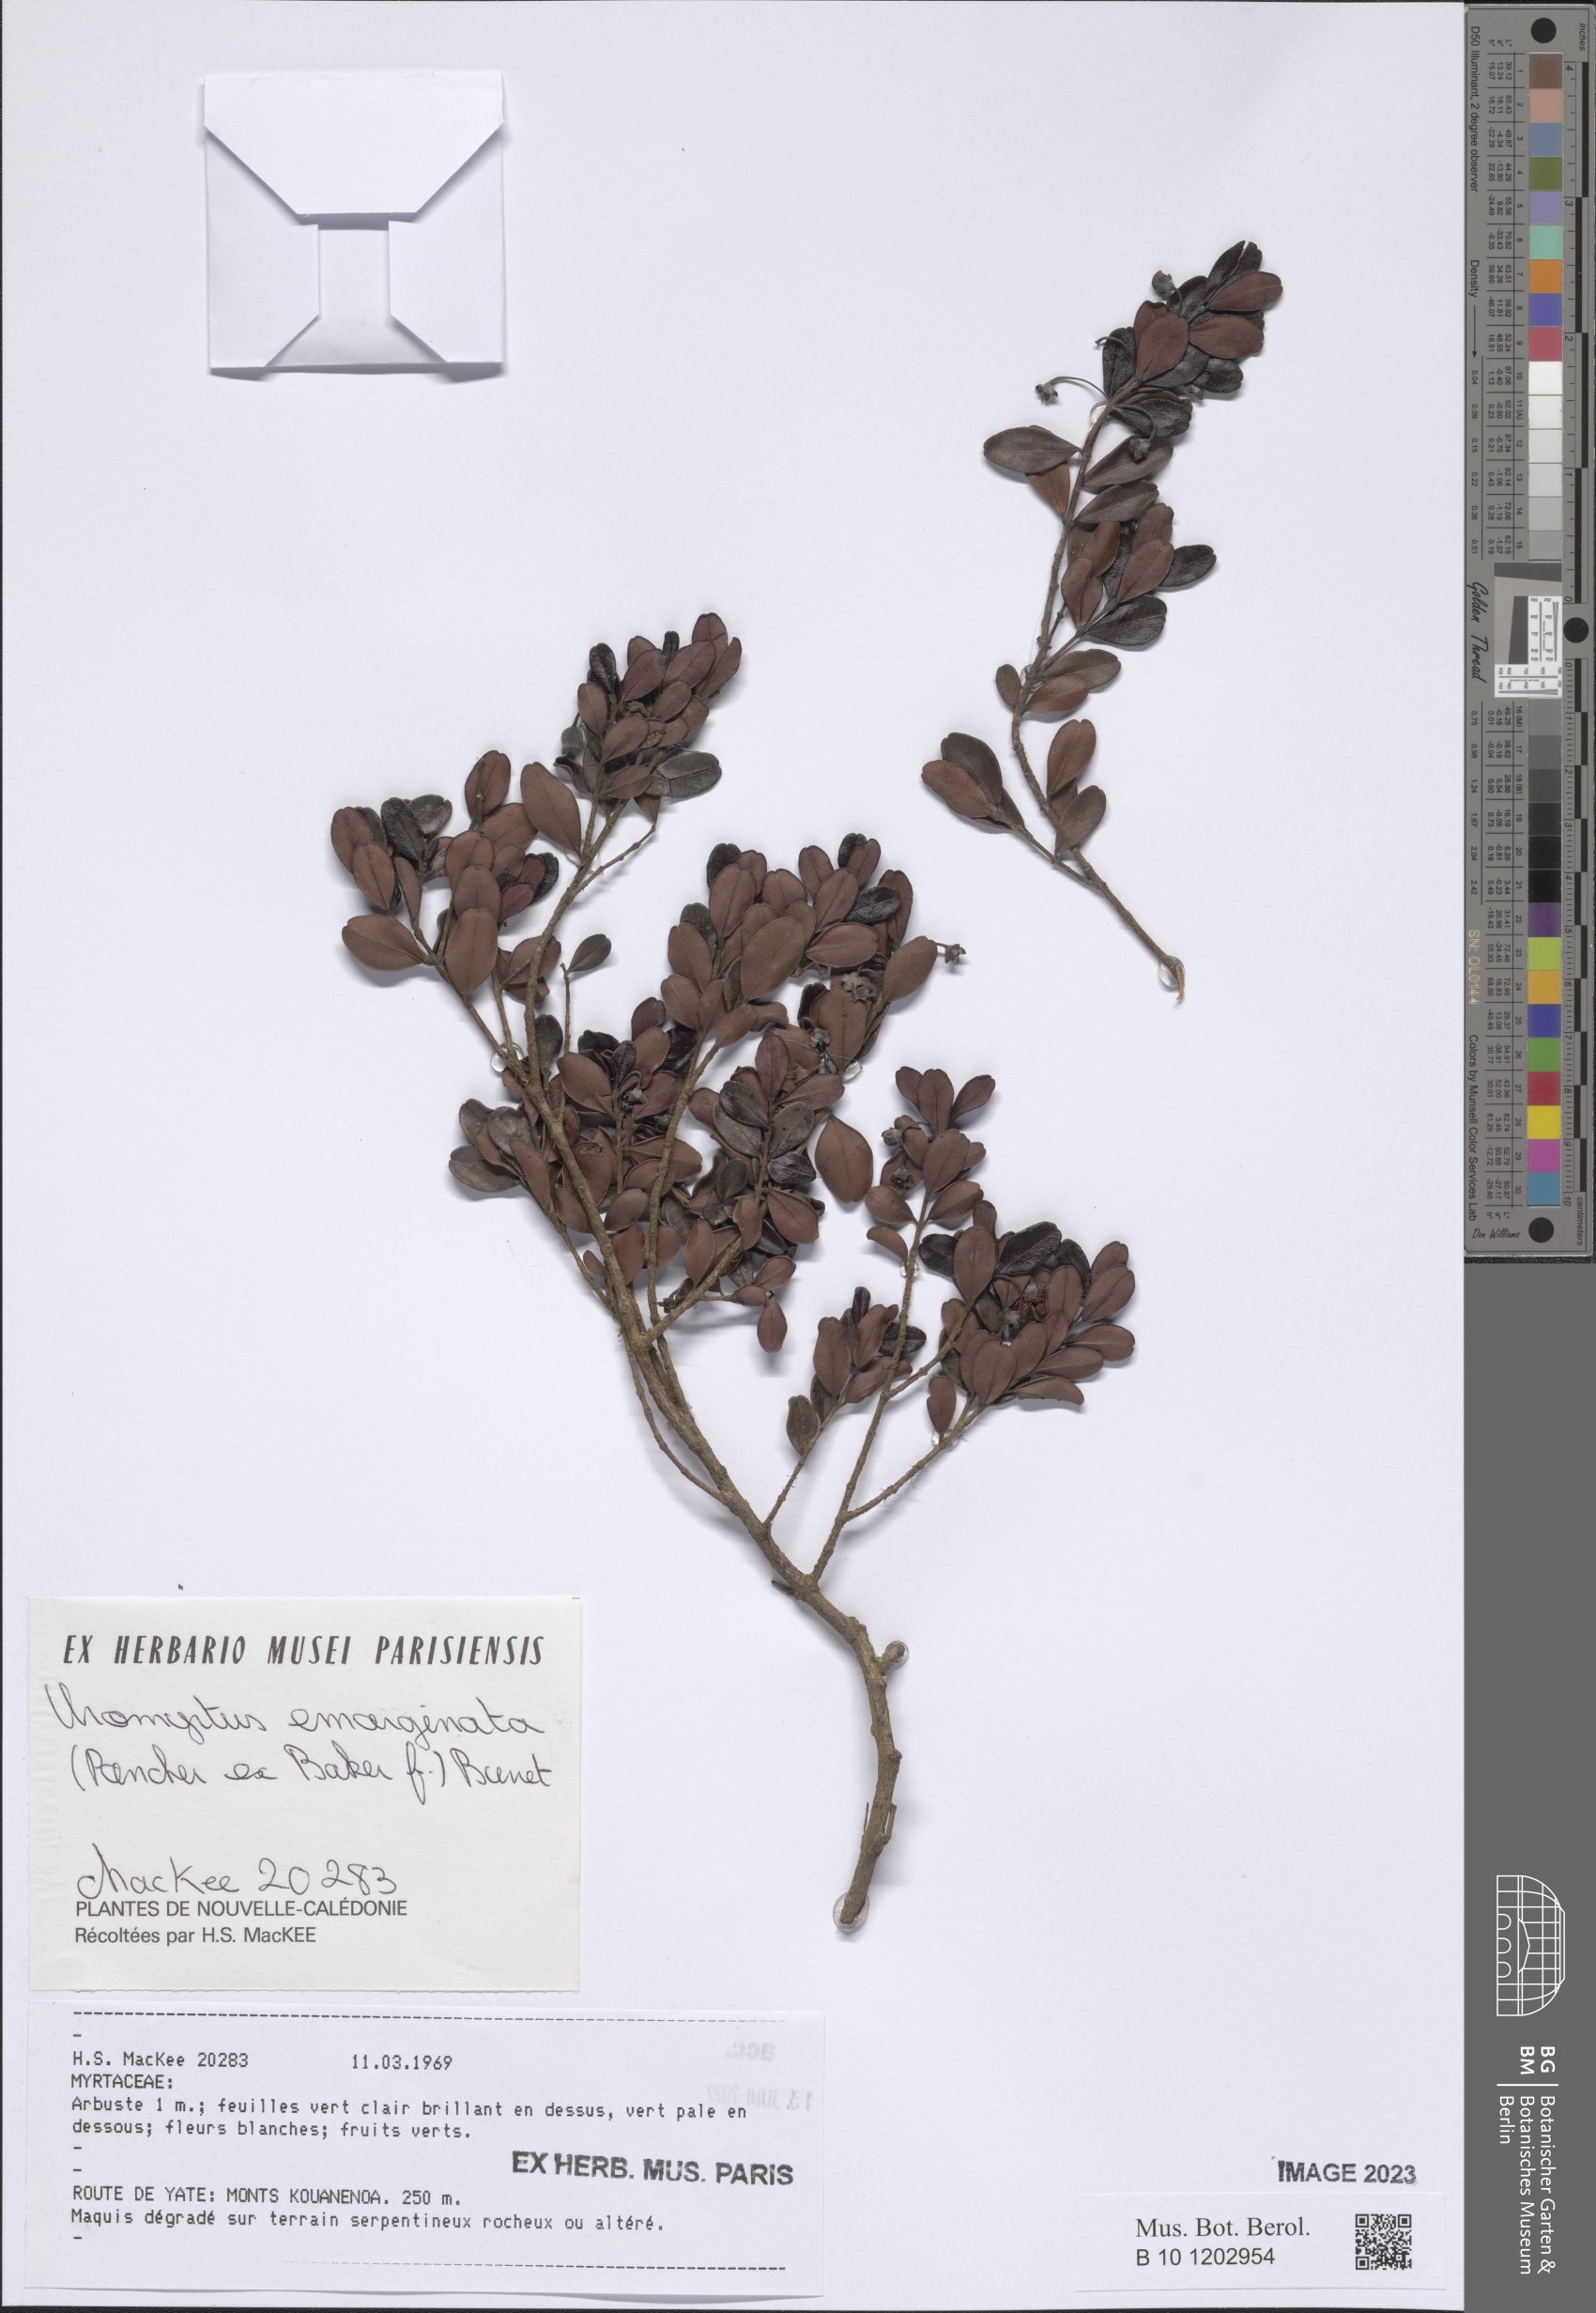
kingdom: Plantae
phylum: Tracheophyta
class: Magnoliopsida
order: Myrtales
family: Myrtaceae
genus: Uromyrtus
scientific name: Uromyrtus emarginatus
